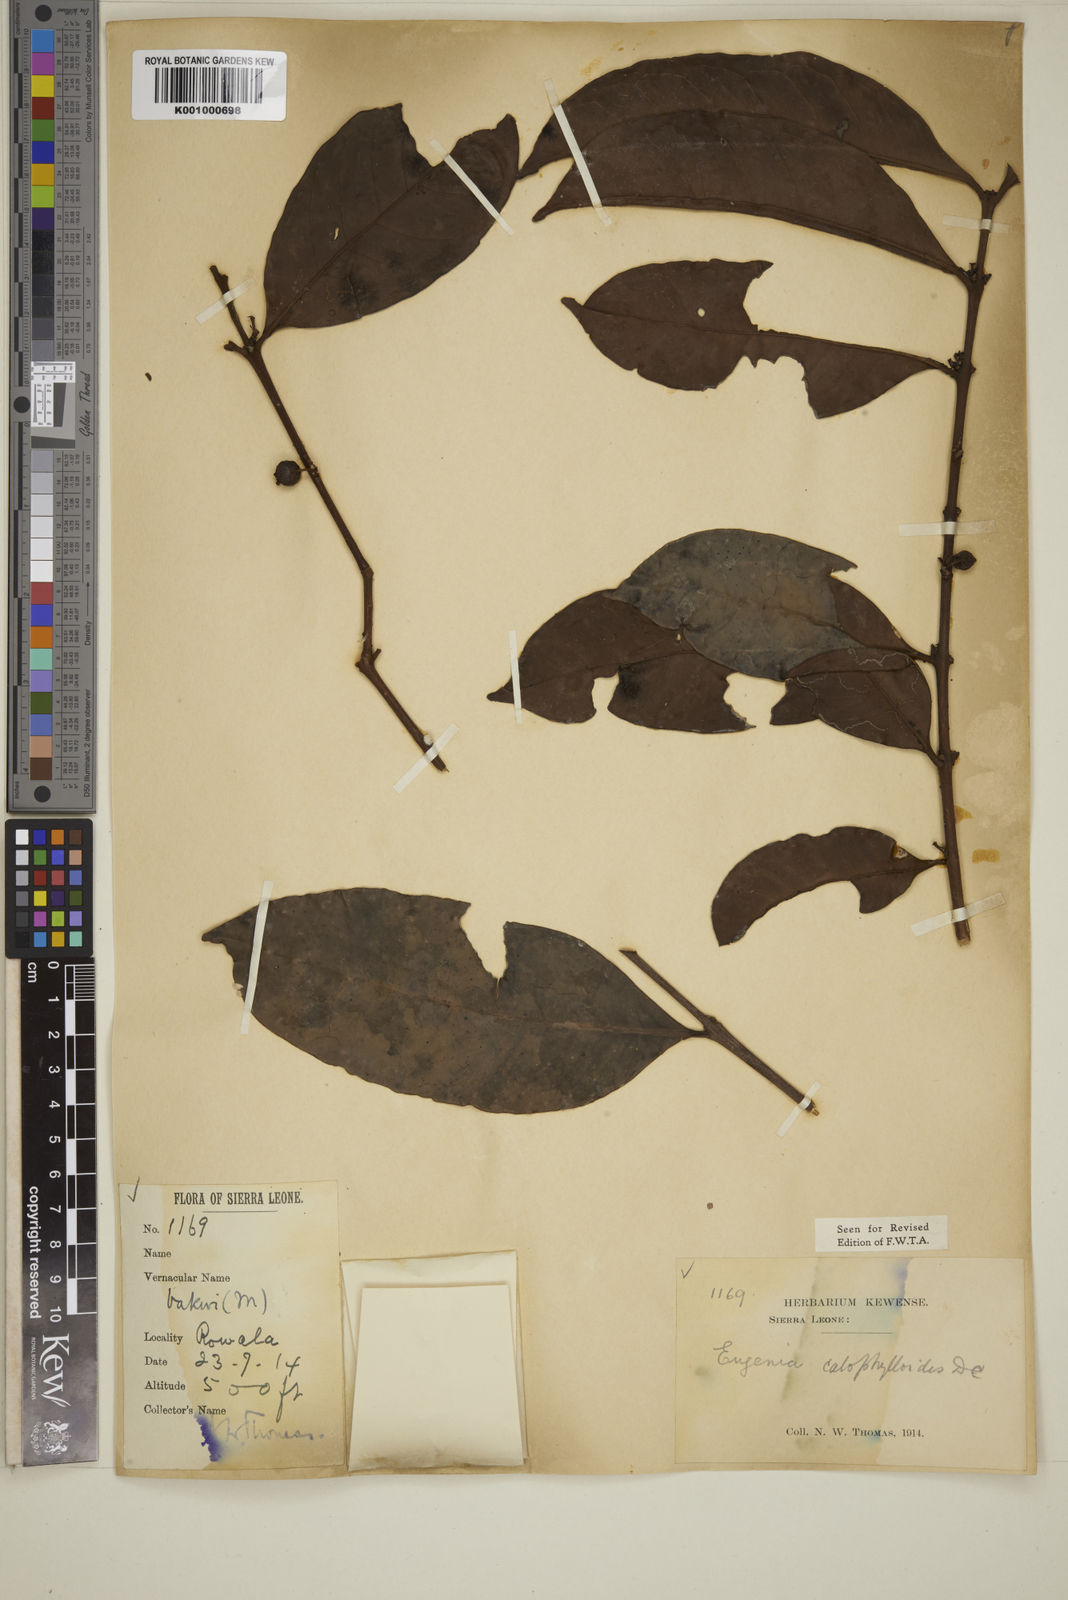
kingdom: Plantae
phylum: Tracheophyta
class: Magnoliopsida
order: Myrtales
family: Myrtaceae
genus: Eugenia
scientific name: Eugenia calophylloides
